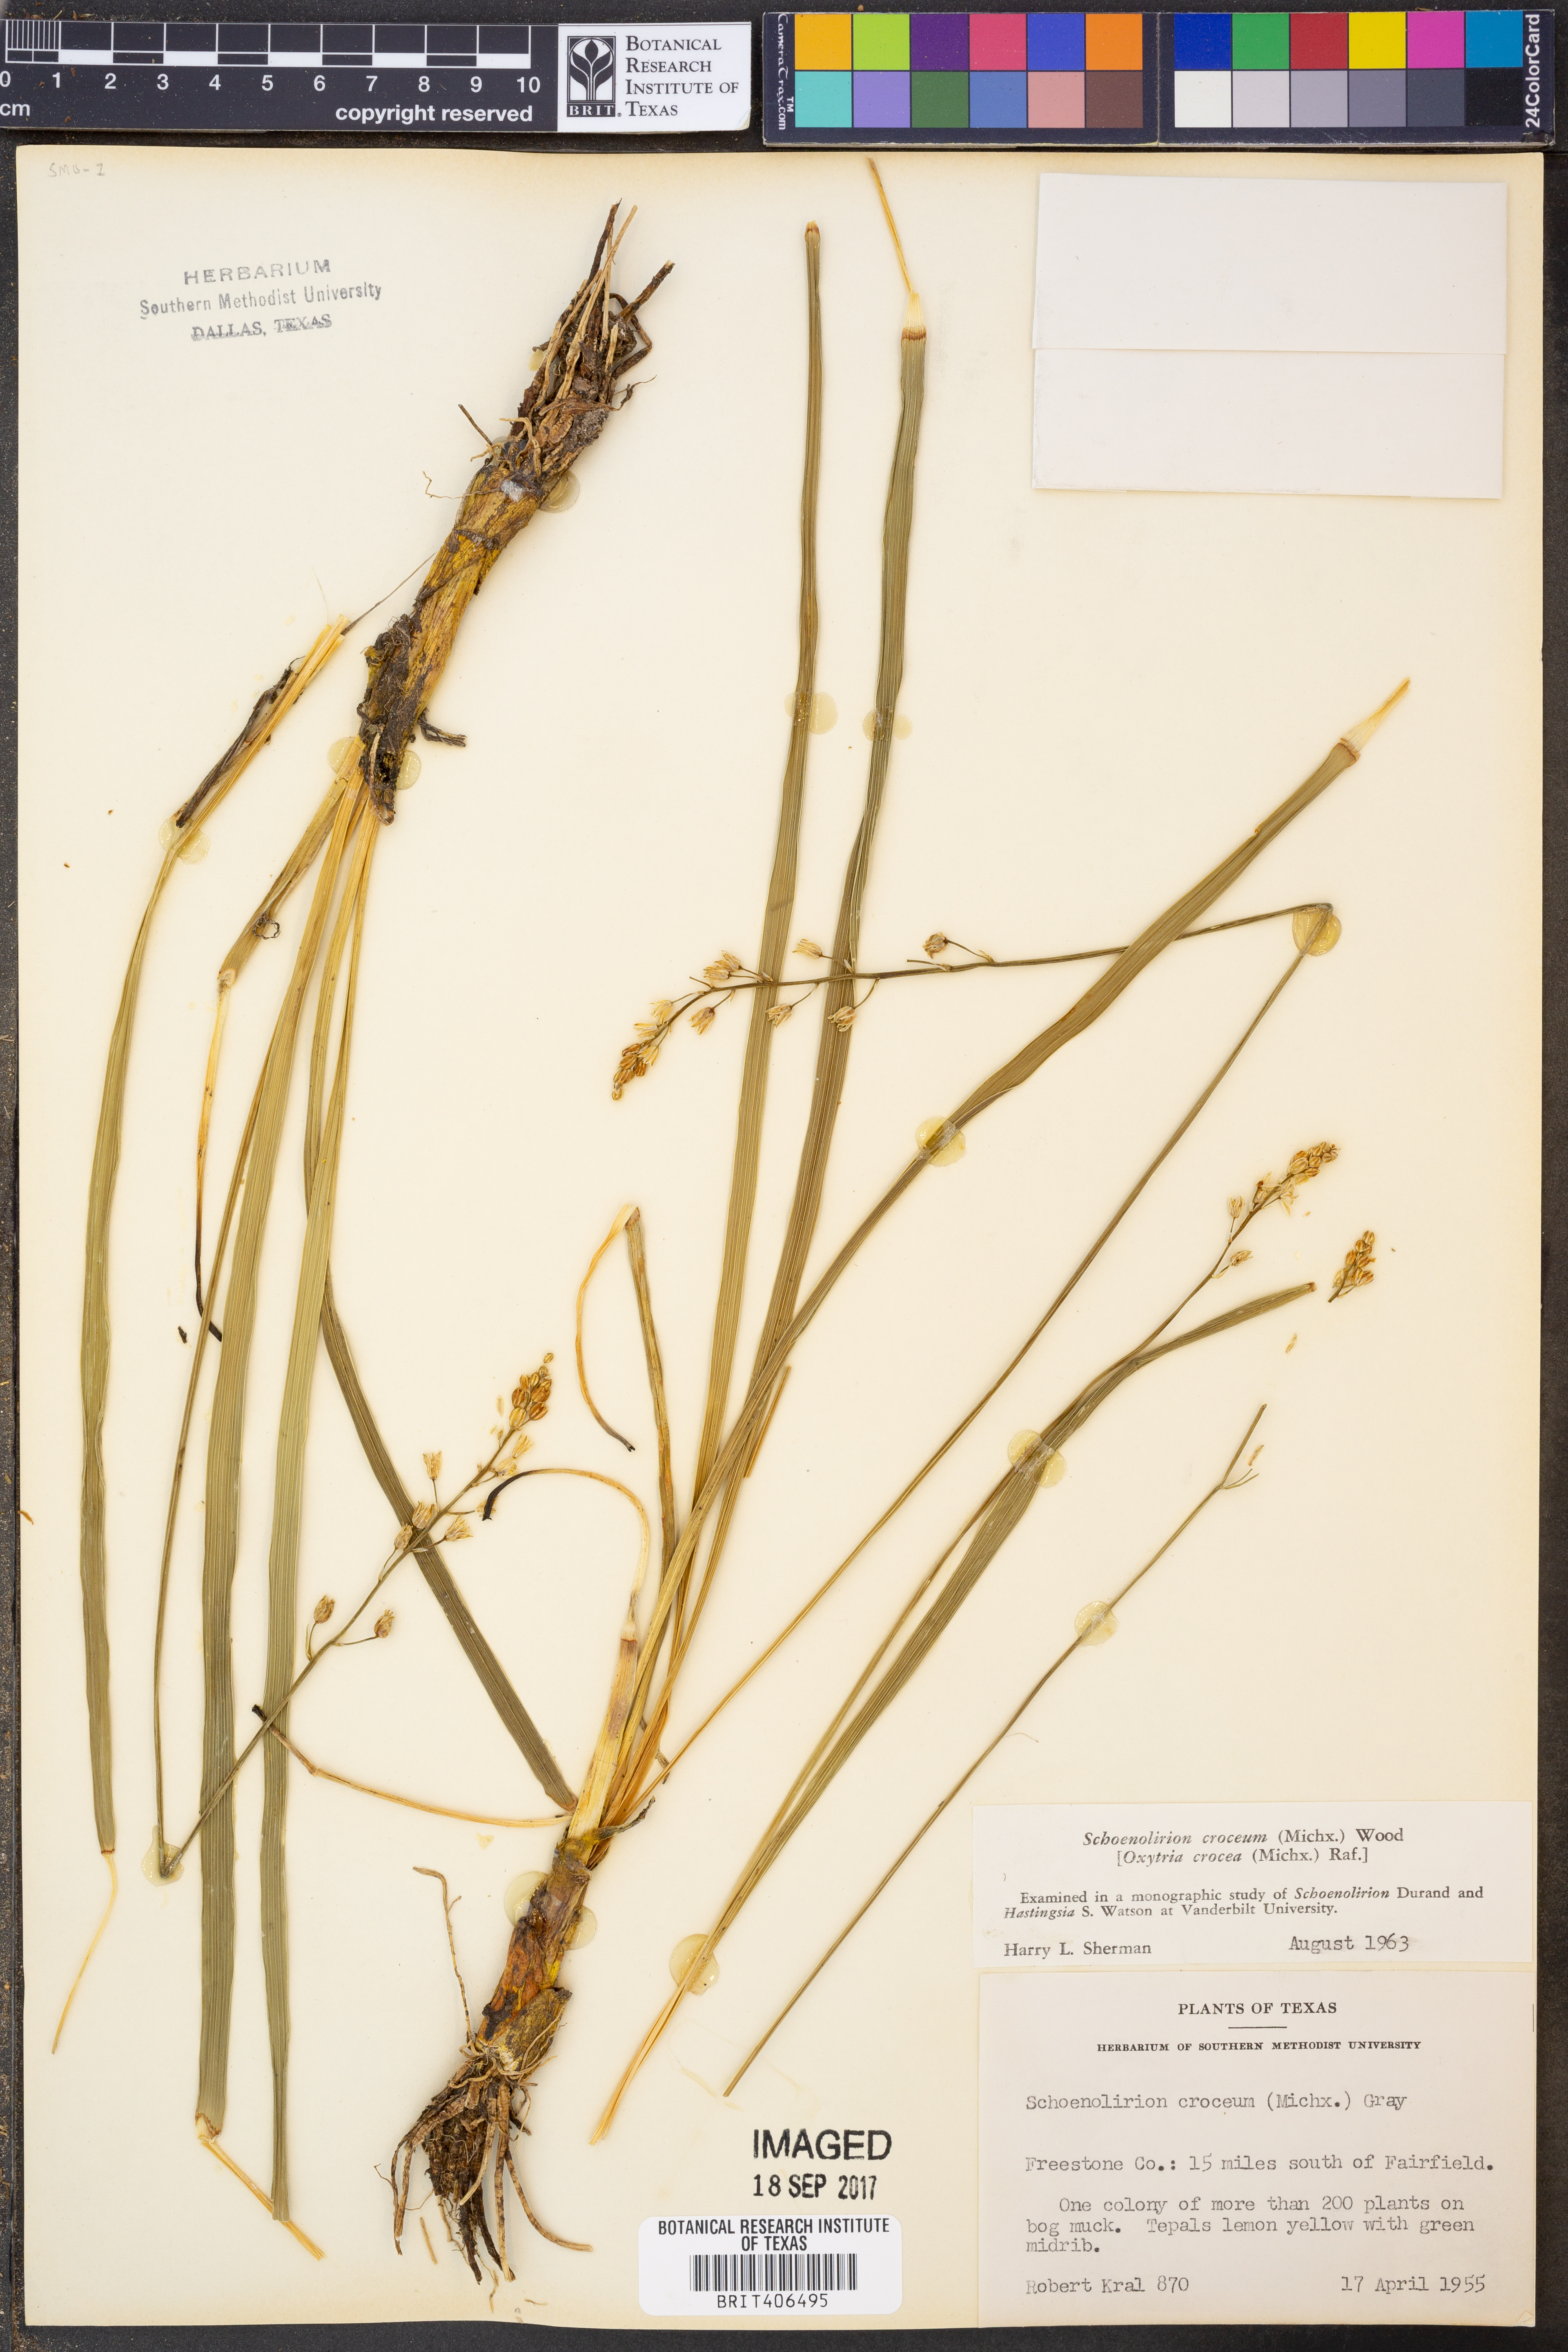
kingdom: Plantae
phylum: Tracheophyta
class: Liliopsida
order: Asparagales
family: Asparagaceae
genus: Schoenolirion
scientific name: Schoenolirion croceum
